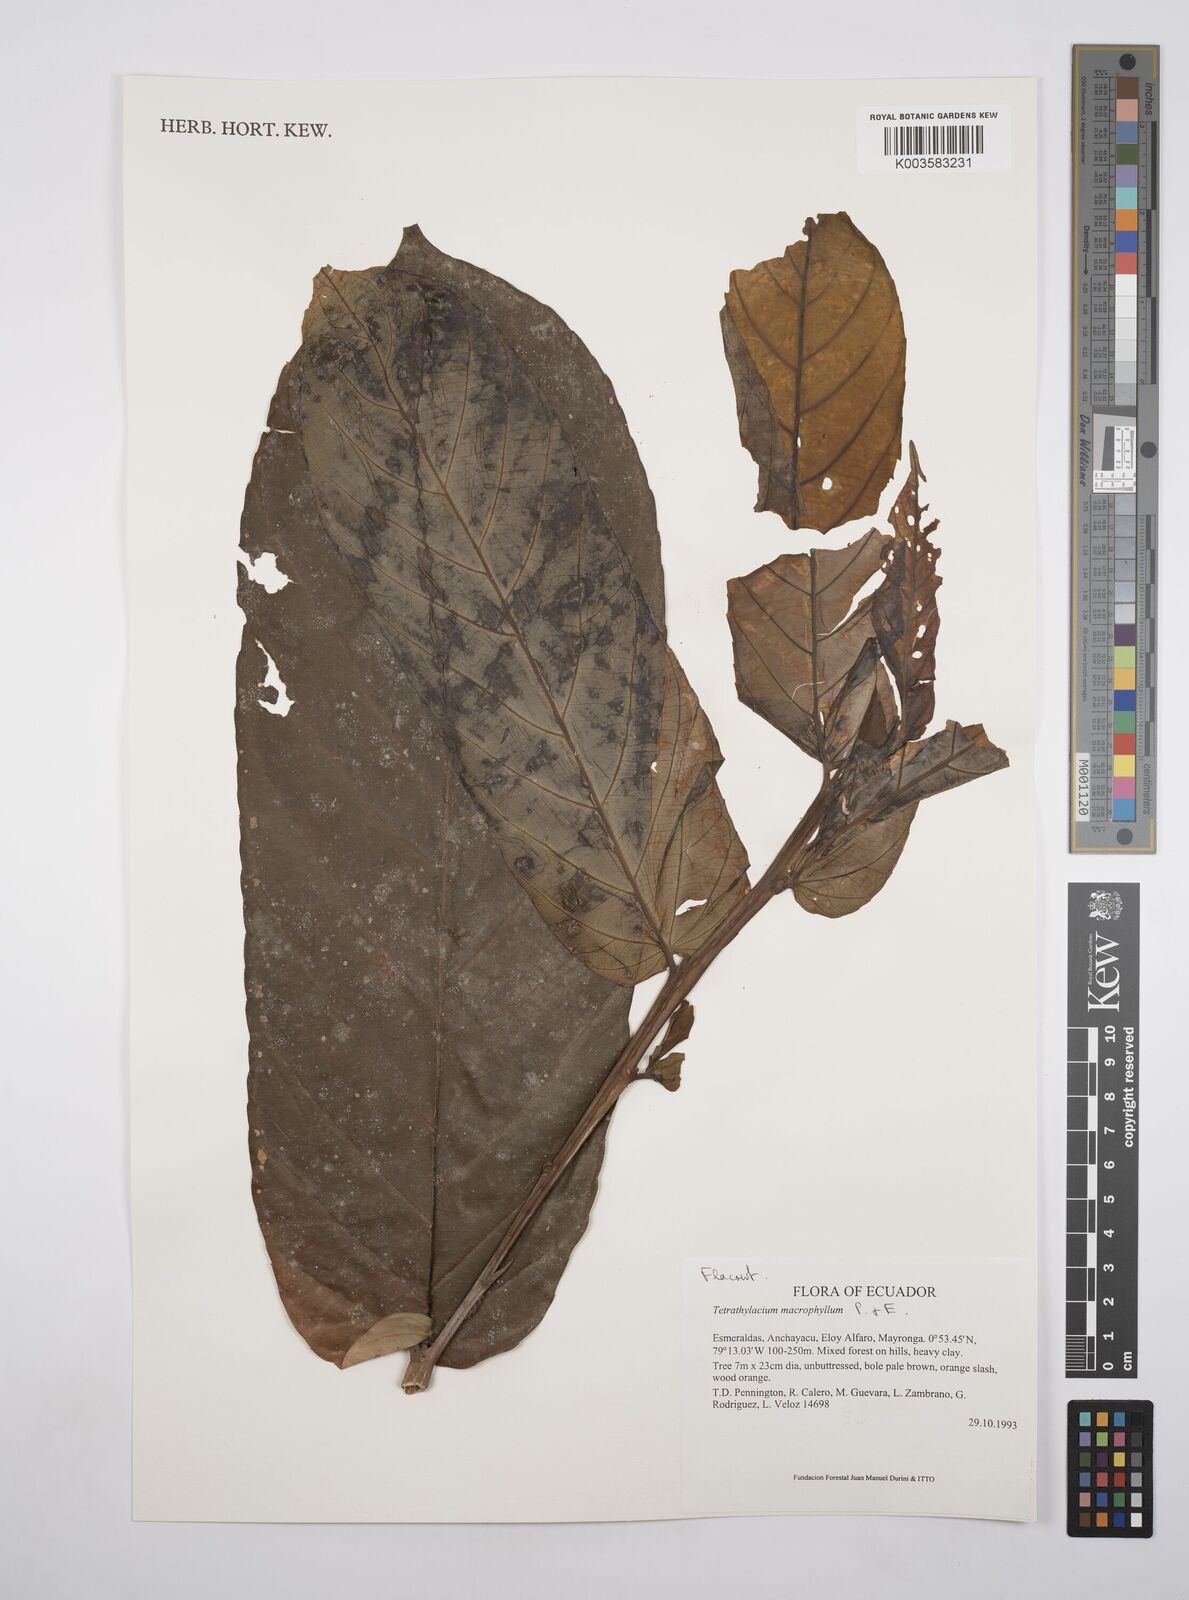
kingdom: Plantae
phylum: Tracheophyta
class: Magnoliopsida
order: Malpighiales
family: Salicaceae
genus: Tetrathylacium
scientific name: Tetrathylacium macrophyllum
